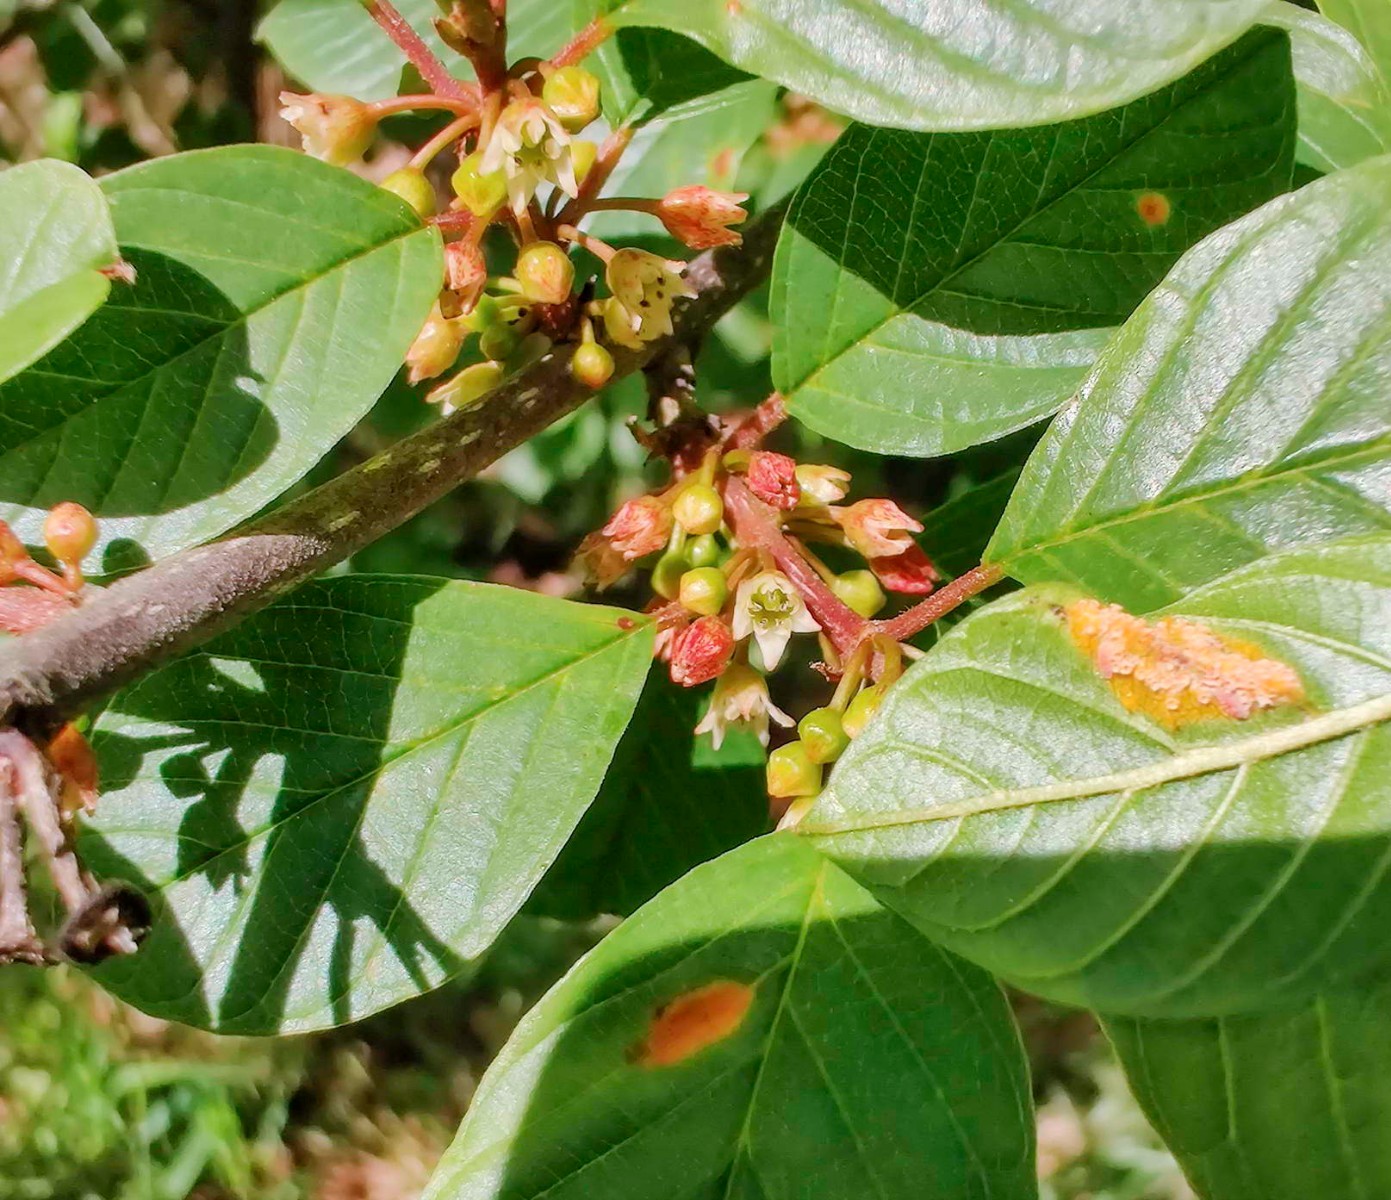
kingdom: Fungi
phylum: Basidiomycota
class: Pucciniomycetes
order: Pucciniales
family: Pucciniaceae
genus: Puccinia
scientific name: Puccinia coronata
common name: Crown rust
